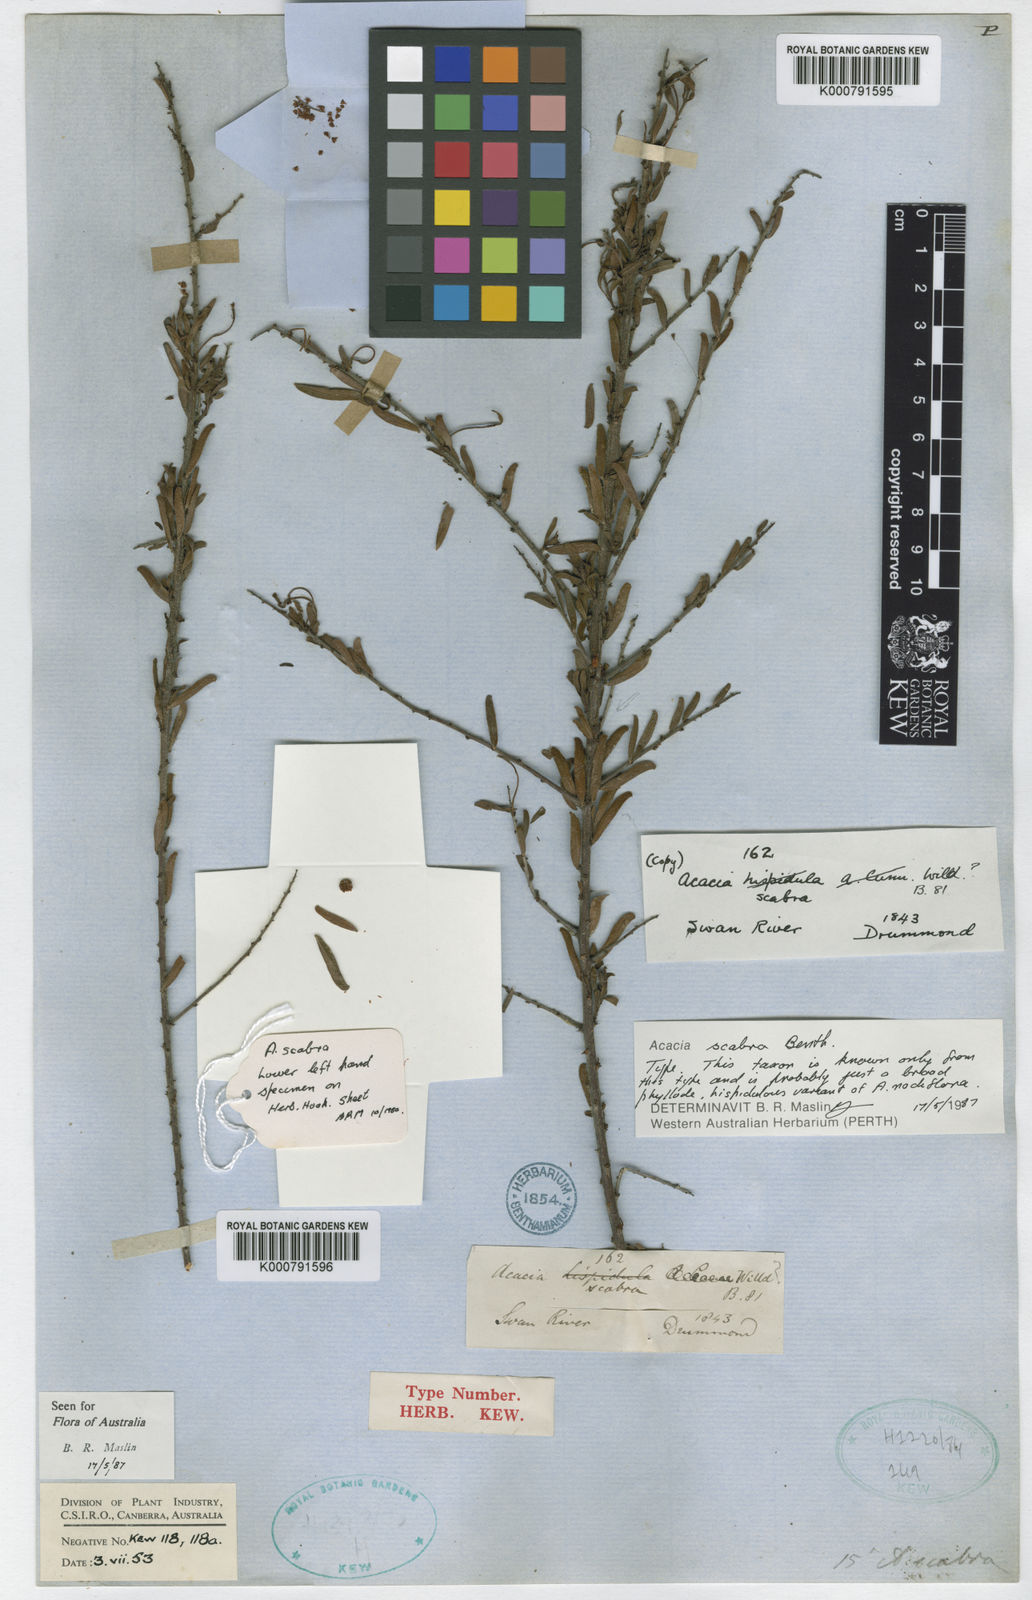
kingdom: Plantae
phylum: Tracheophyta
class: Magnoliopsida
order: Fabales
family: Fabaceae
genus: Acacia
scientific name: Acacia scabra
